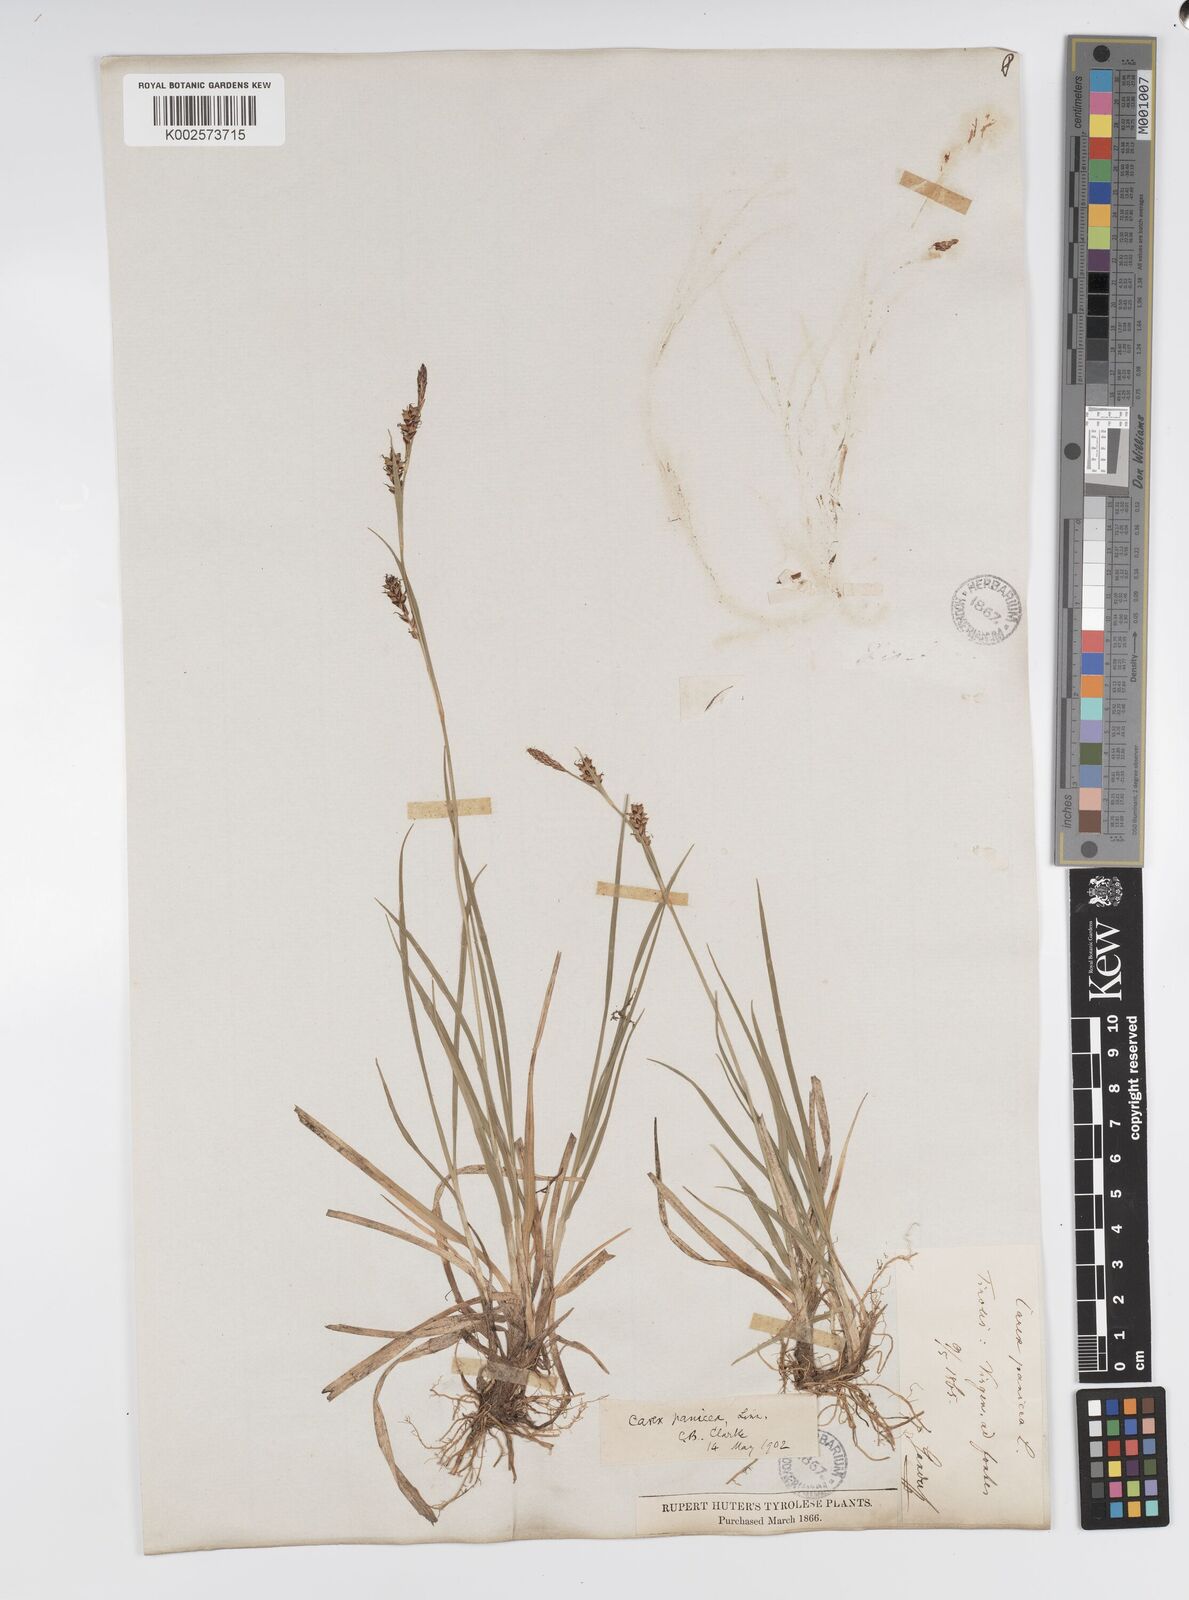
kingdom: Plantae
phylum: Tracheophyta
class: Liliopsida
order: Poales
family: Cyperaceae
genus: Carex
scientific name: Carex panicea
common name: Carnation sedge
